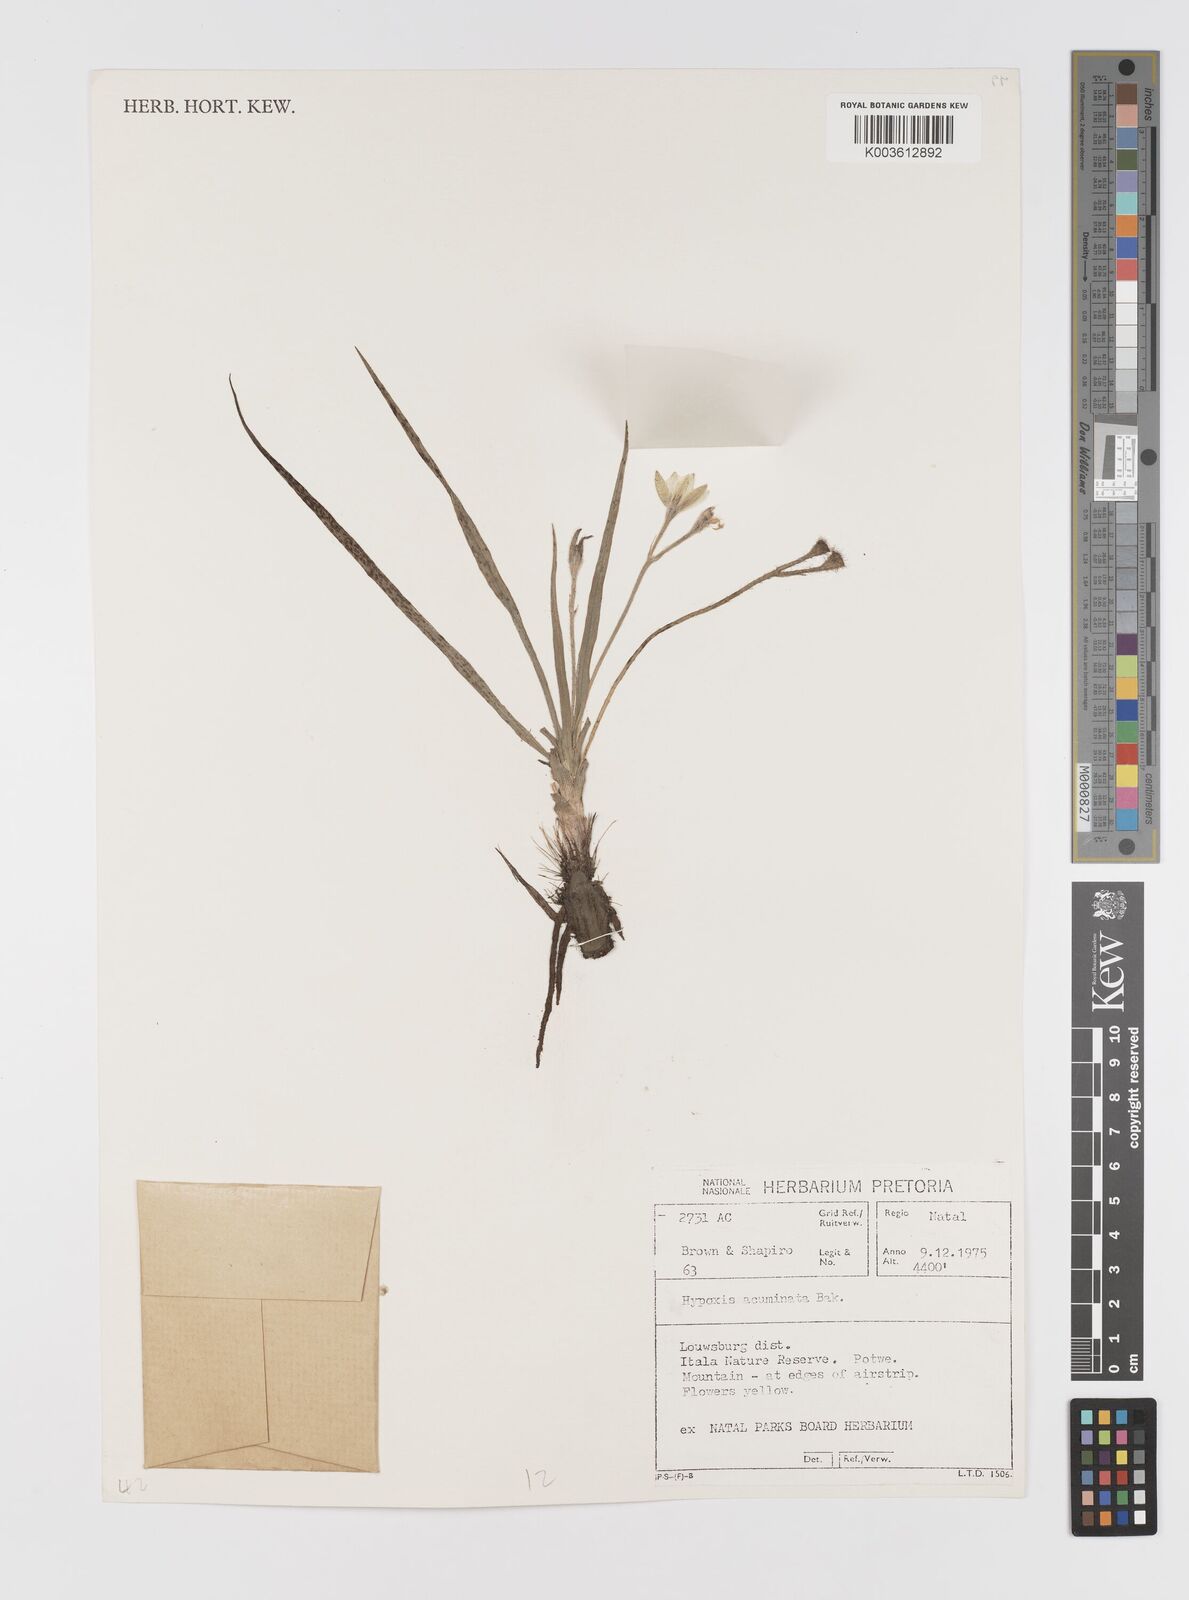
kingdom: Plantae
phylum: Tracheophyta
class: Liliopsida
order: Asparagales
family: Hypoxidaceae
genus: Hypoxis
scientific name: Hypoxis acuminata
